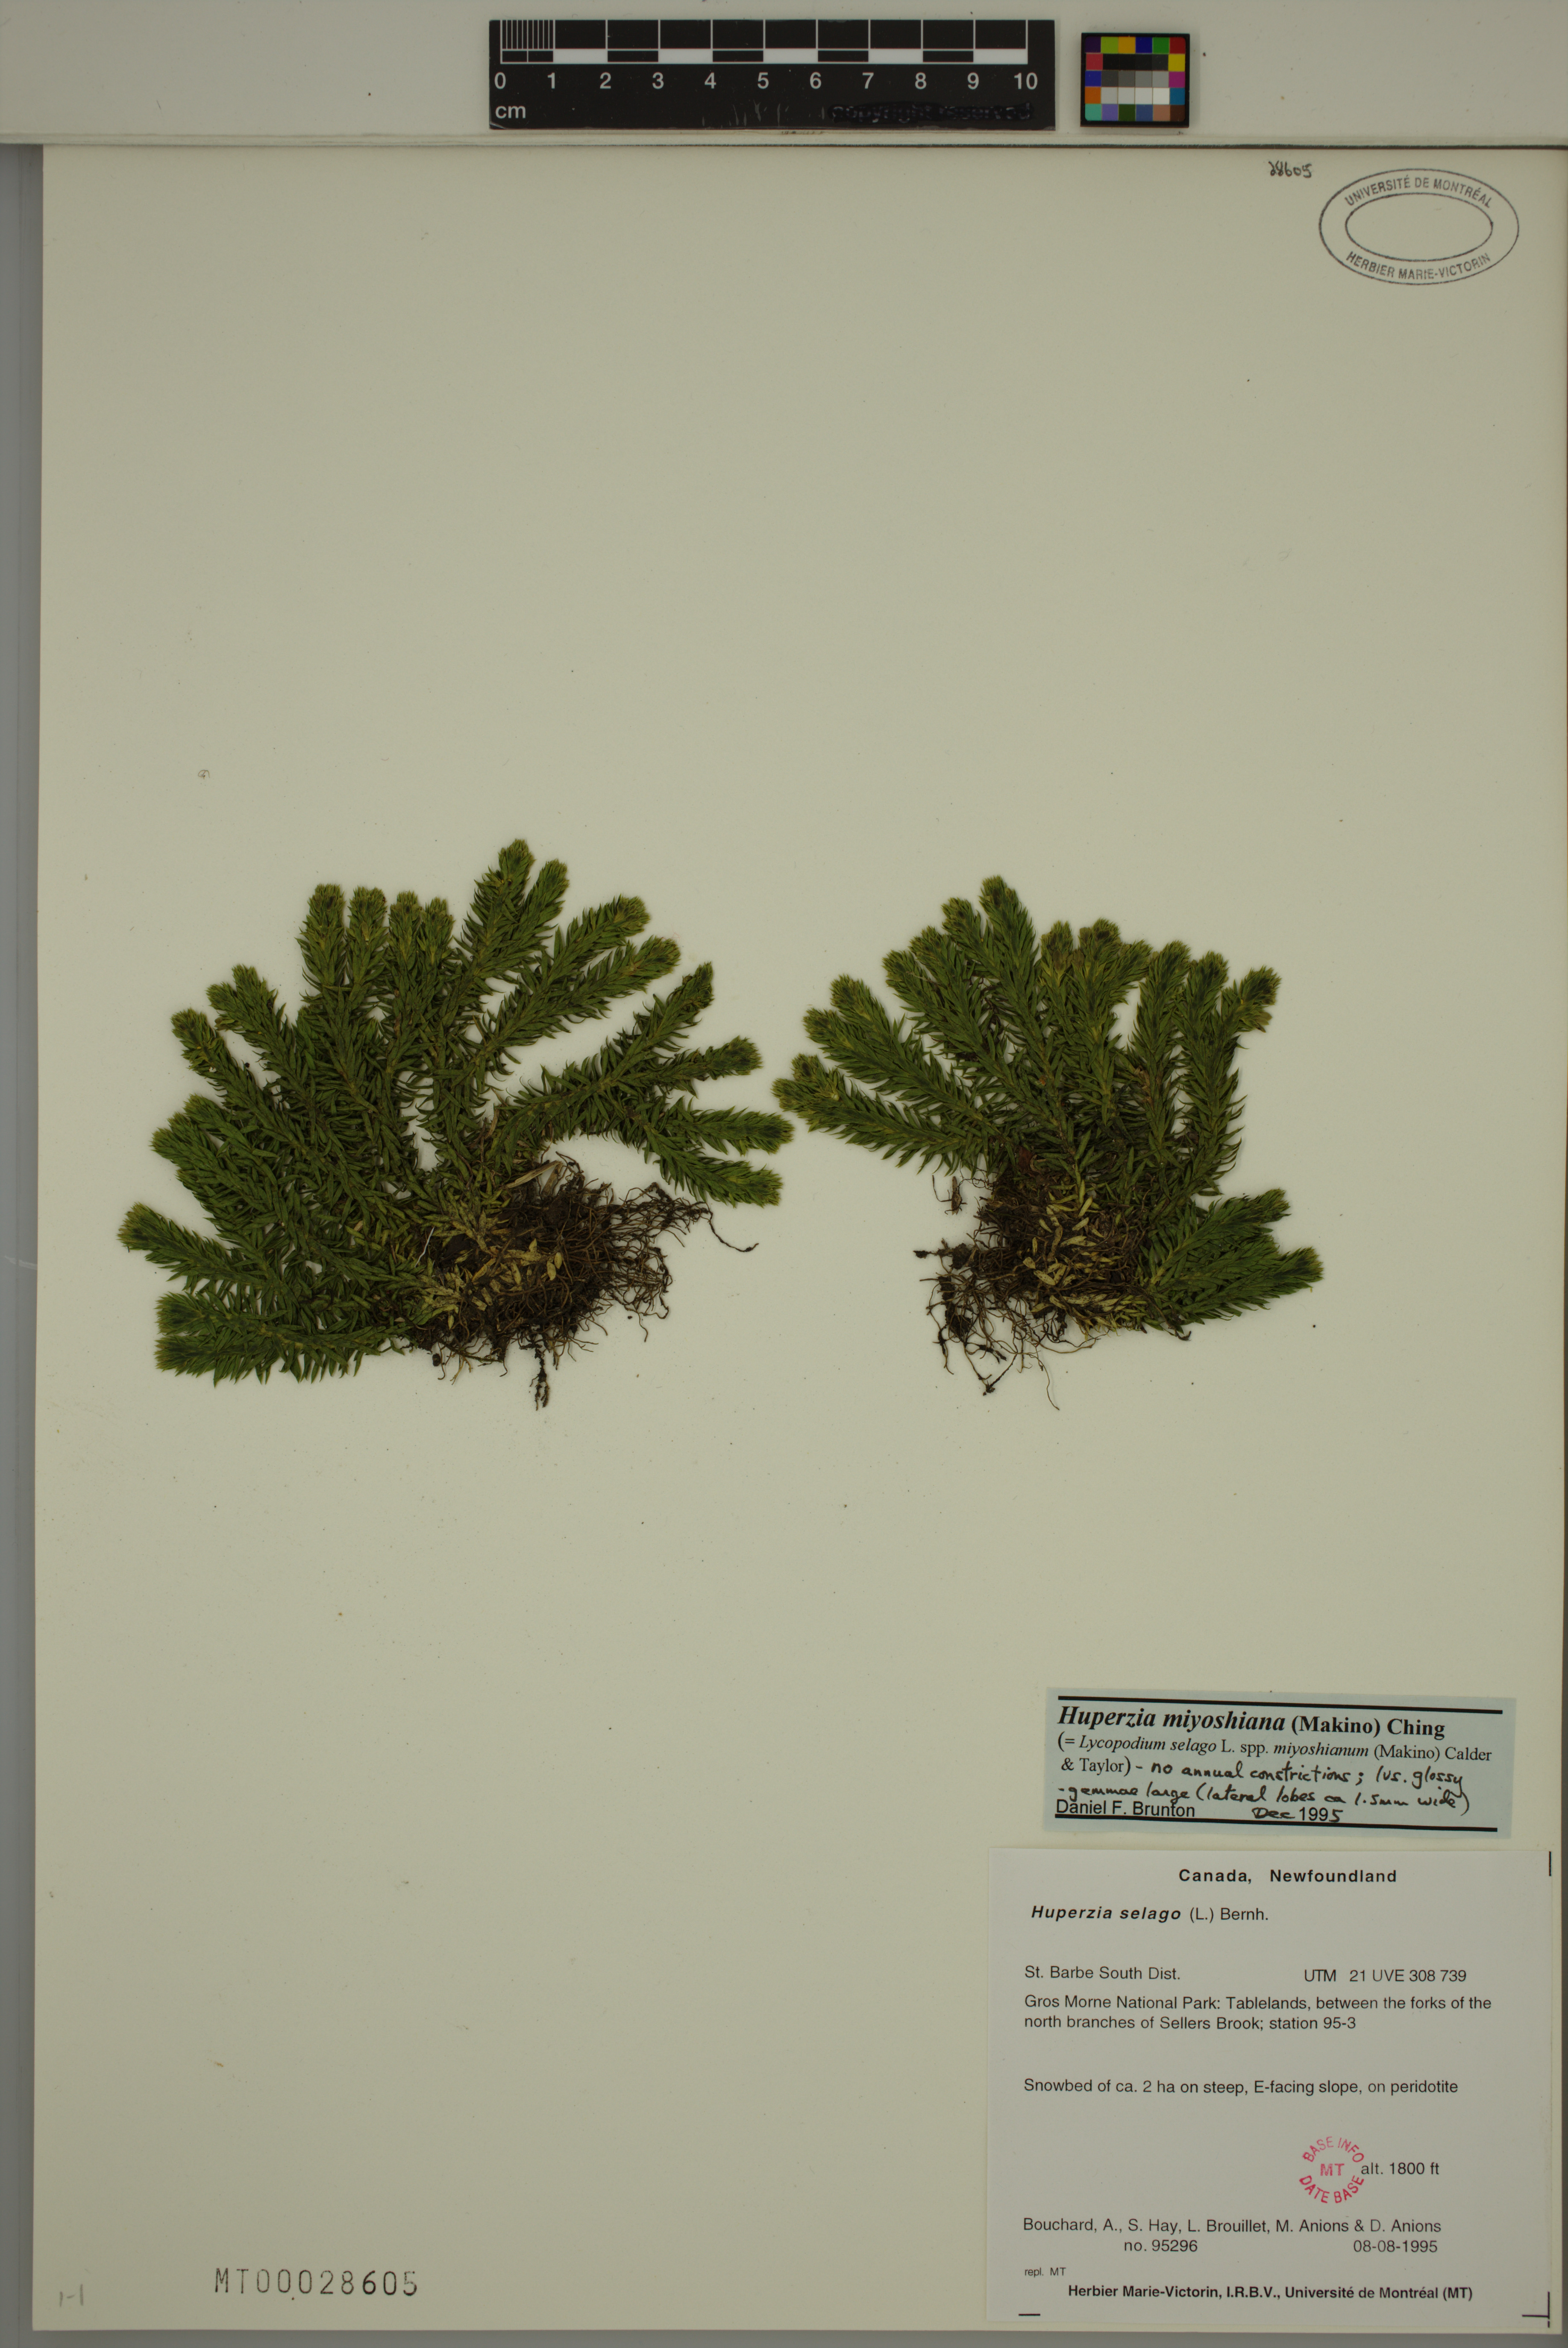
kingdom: Plantae
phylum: Tracheophyta
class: Lycopodiopsida
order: Lycopodiales
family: Lycopodiaceae
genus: Huperzia
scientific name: Huperzia miyoshiana
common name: Chinese clubmoss
